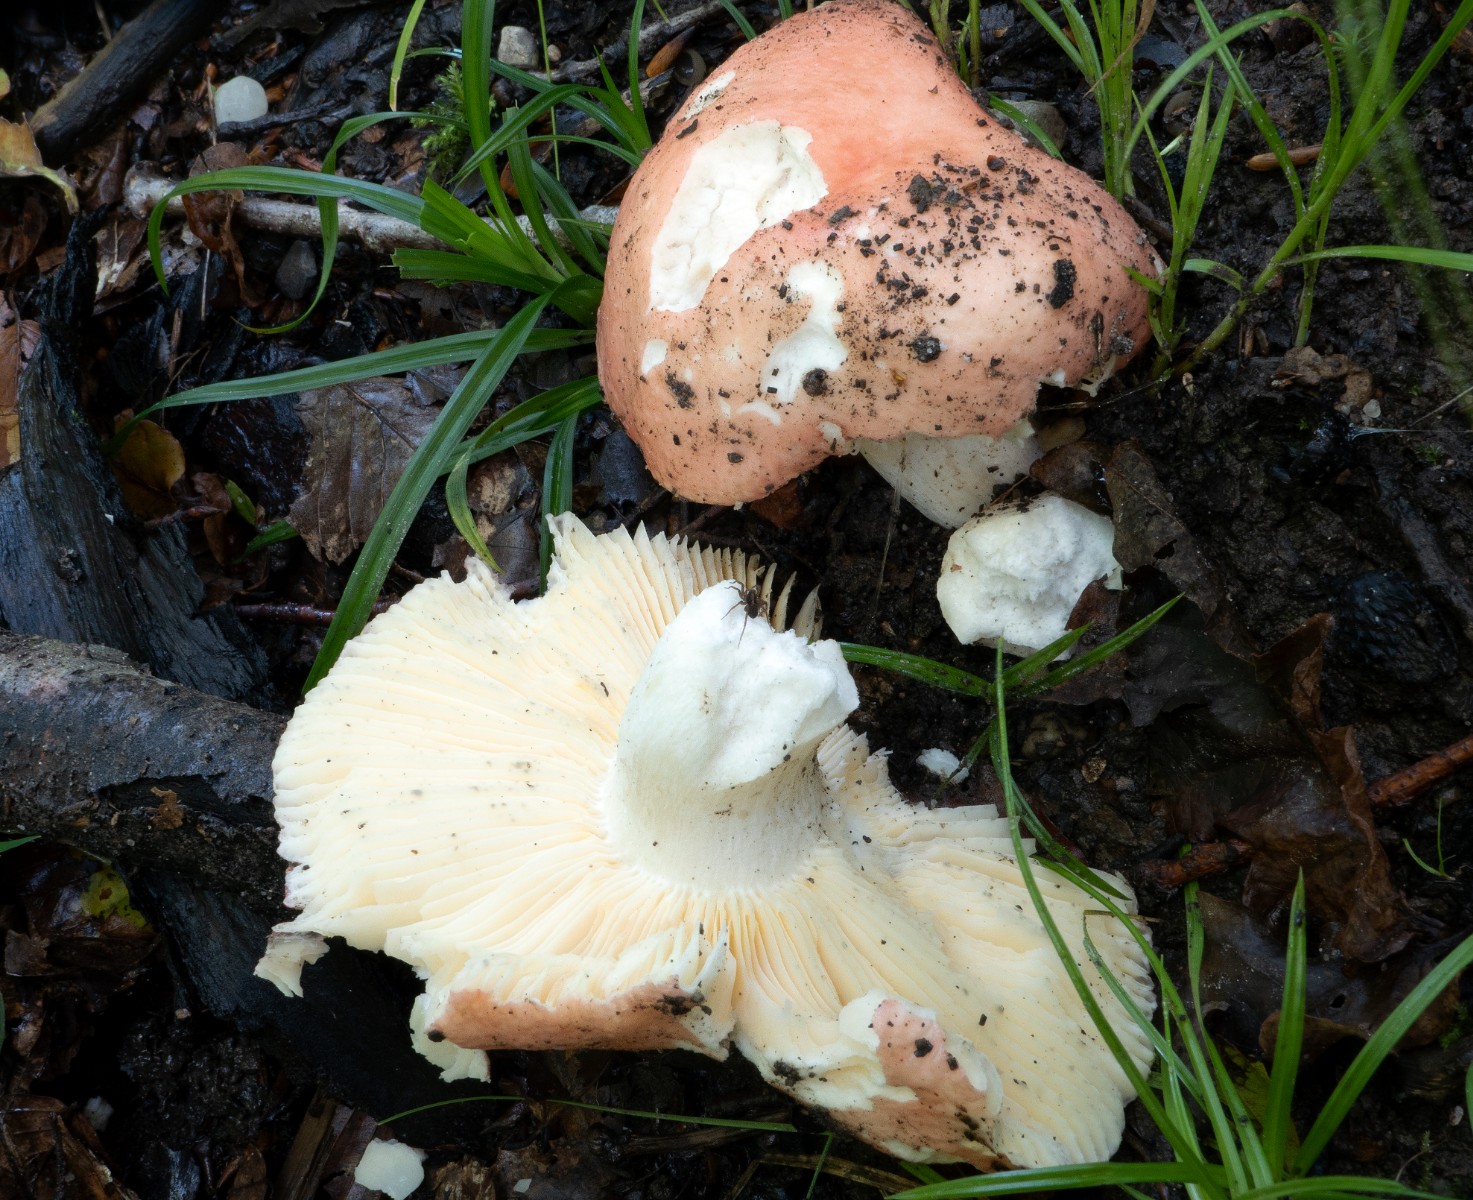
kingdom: Fungi
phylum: Basidiomycota
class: Agaricomycetes
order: Russulales
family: Russulaceae
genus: Russula
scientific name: Russula pseudointegra
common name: cinnoberrød skørhat
